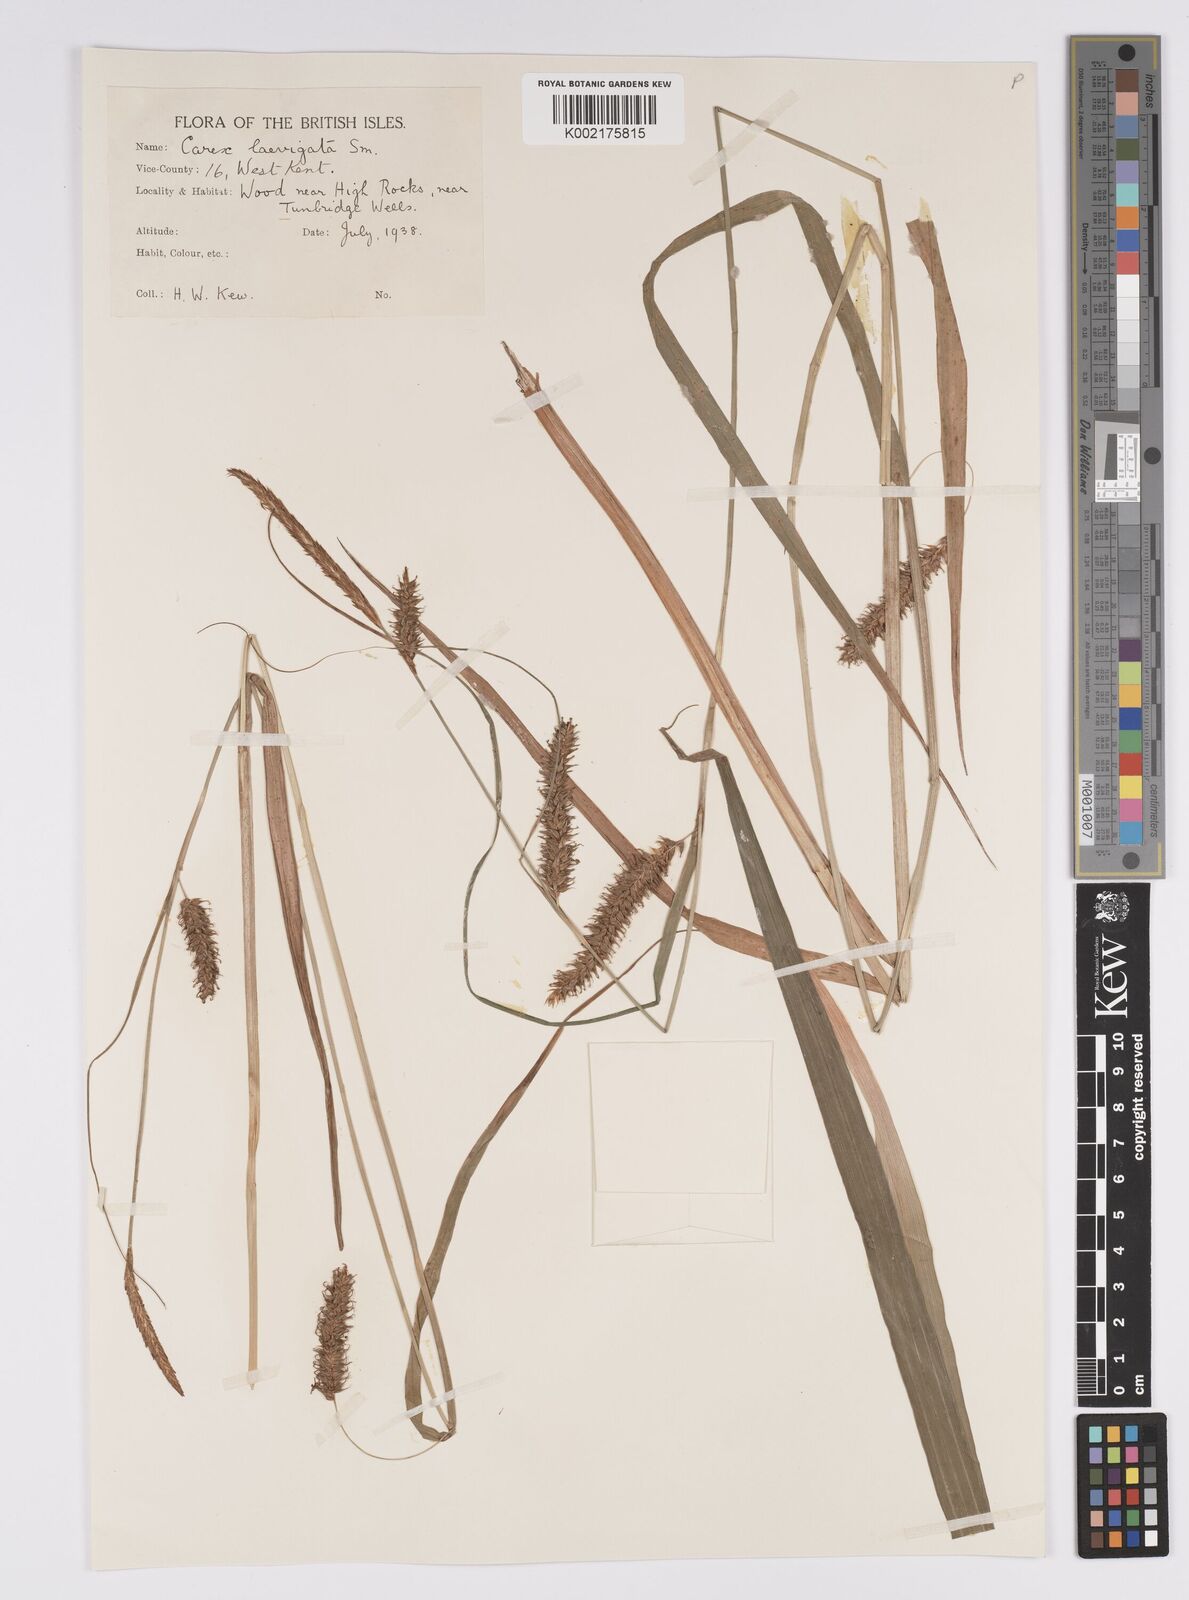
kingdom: Plantae
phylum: Tracheophyta
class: Liliopsida
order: Poales
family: Cyperaceae
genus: Carex
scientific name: Carex laevigata
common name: Smooth-stalked sedge
